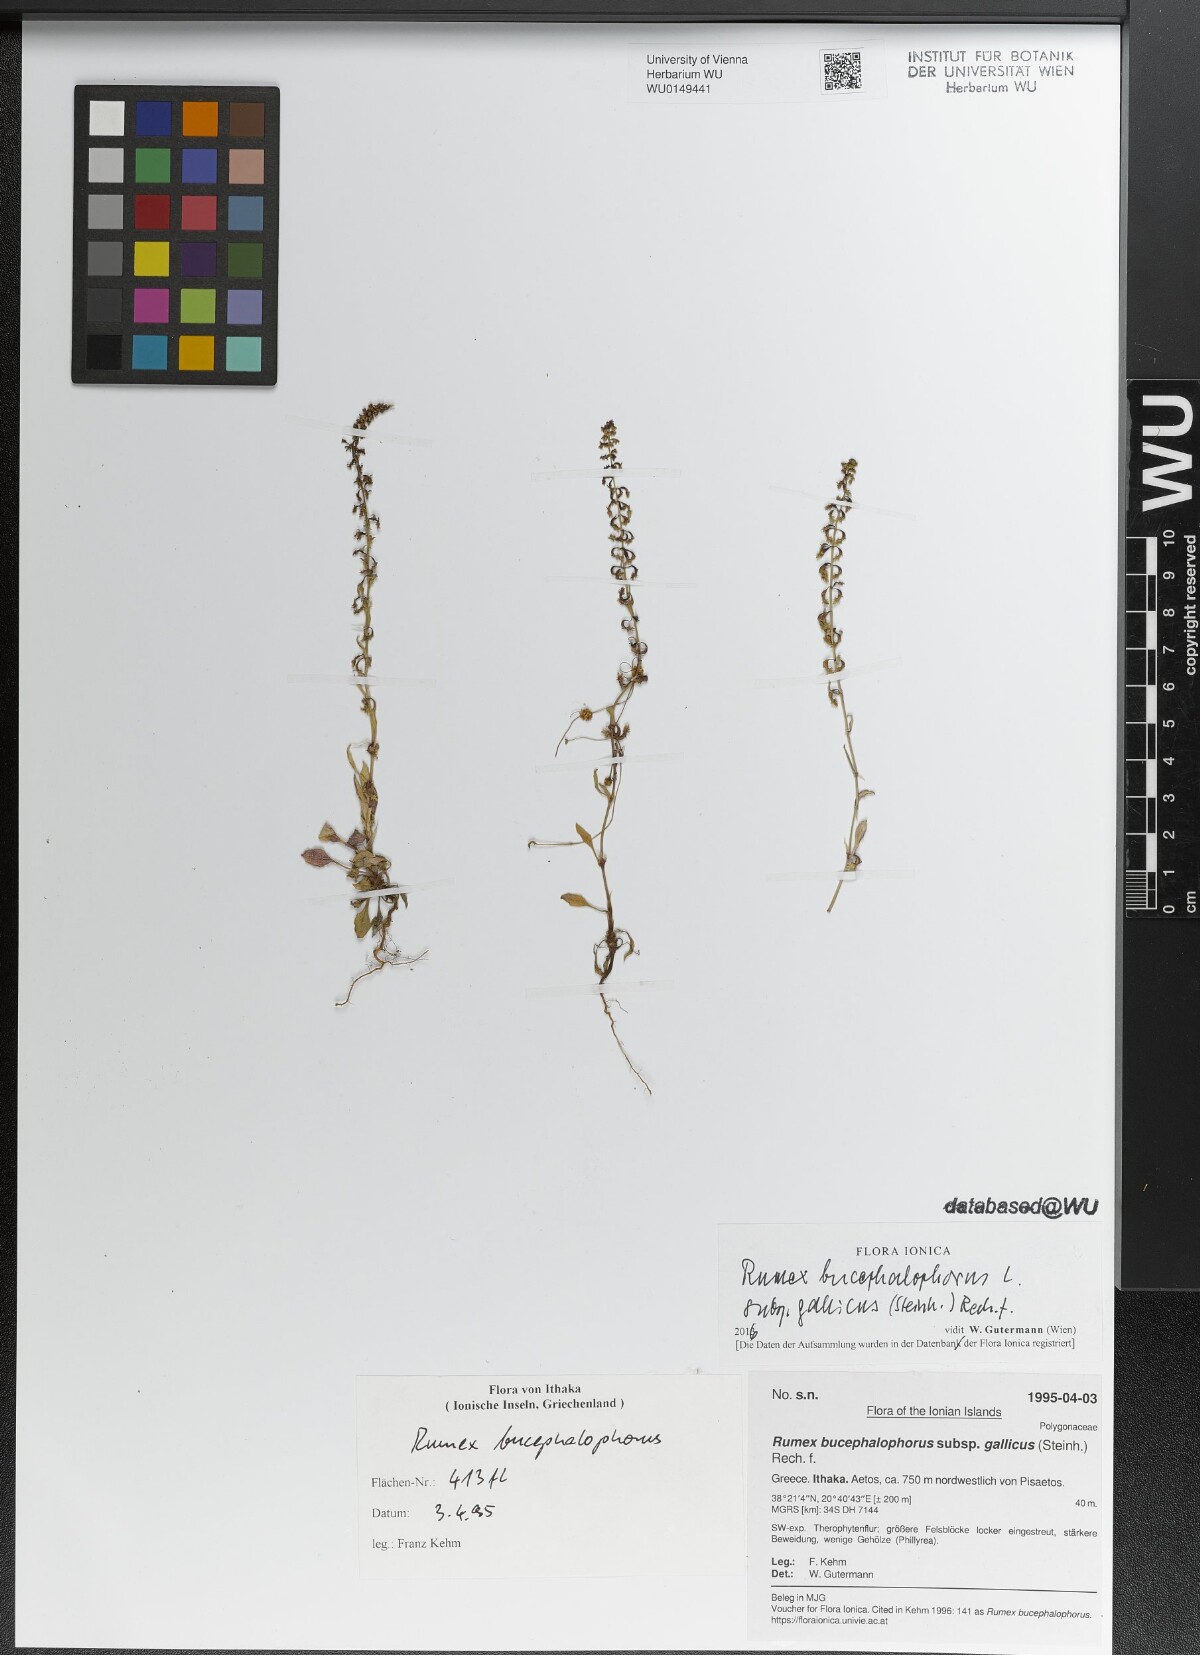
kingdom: Plantae
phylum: Tracheophyta
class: Magnoliopsida
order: Caryophyllales
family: Polygonaceae
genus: Rumex
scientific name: Rumex bucephalophorus
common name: Red dock
